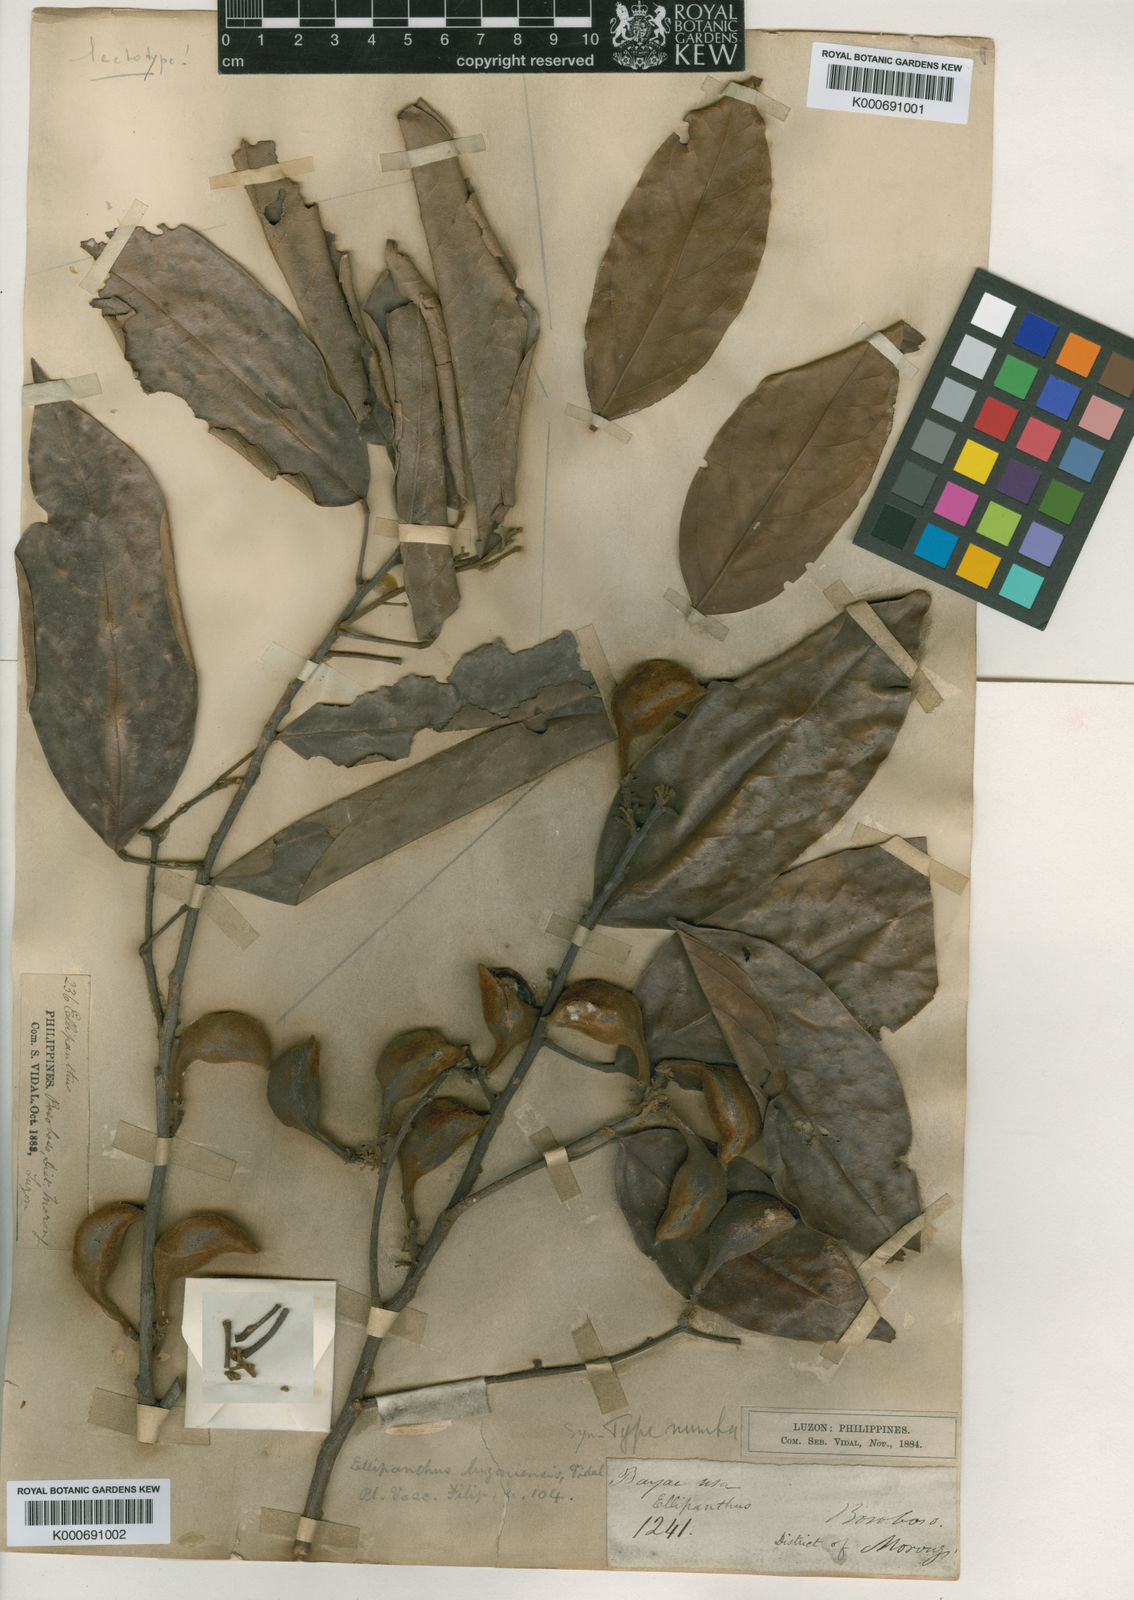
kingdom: Plantae
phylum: Tracheophyta
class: Magnoliopsida
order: Oxalidales
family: Connaraceae
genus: Ellipanthus
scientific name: Ellipanthus tomentosus
